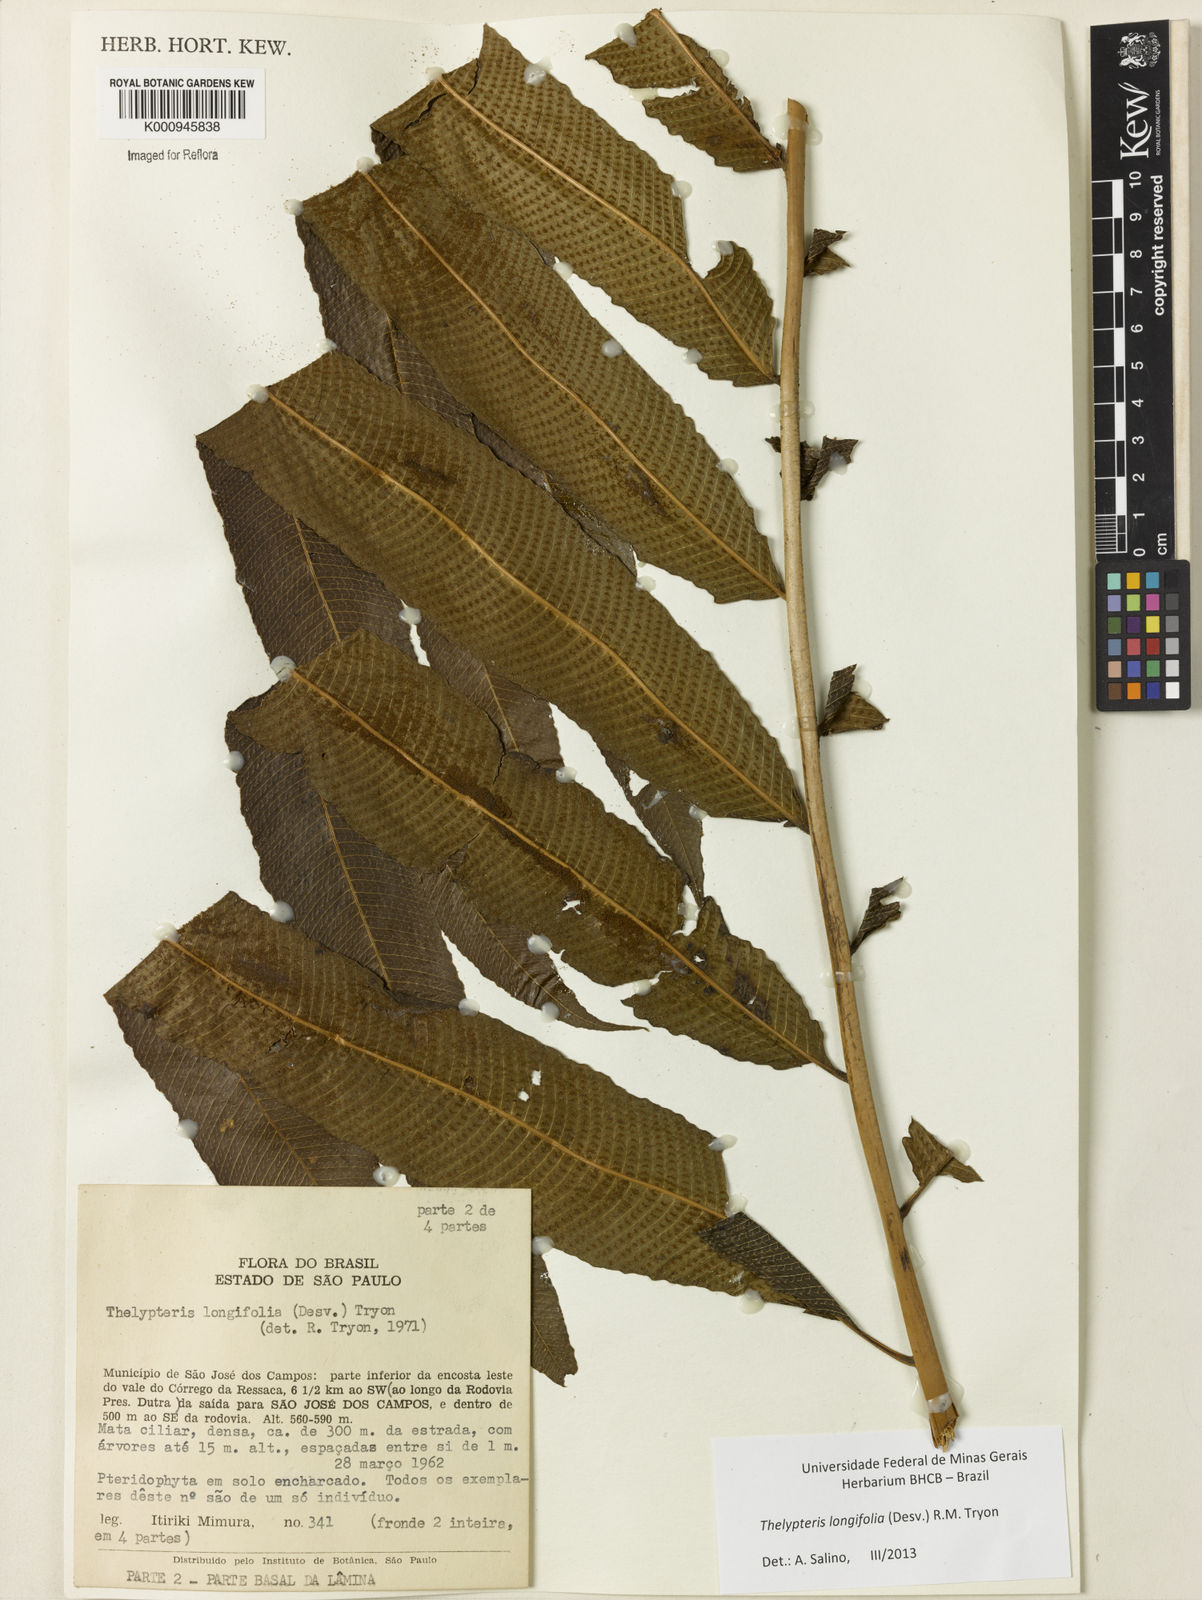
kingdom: Plantae
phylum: Tracheophyta
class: Polypodiopsida
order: Polypodiales
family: Thelypteridaceae
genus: Meniscium
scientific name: Meniscium longifolium
